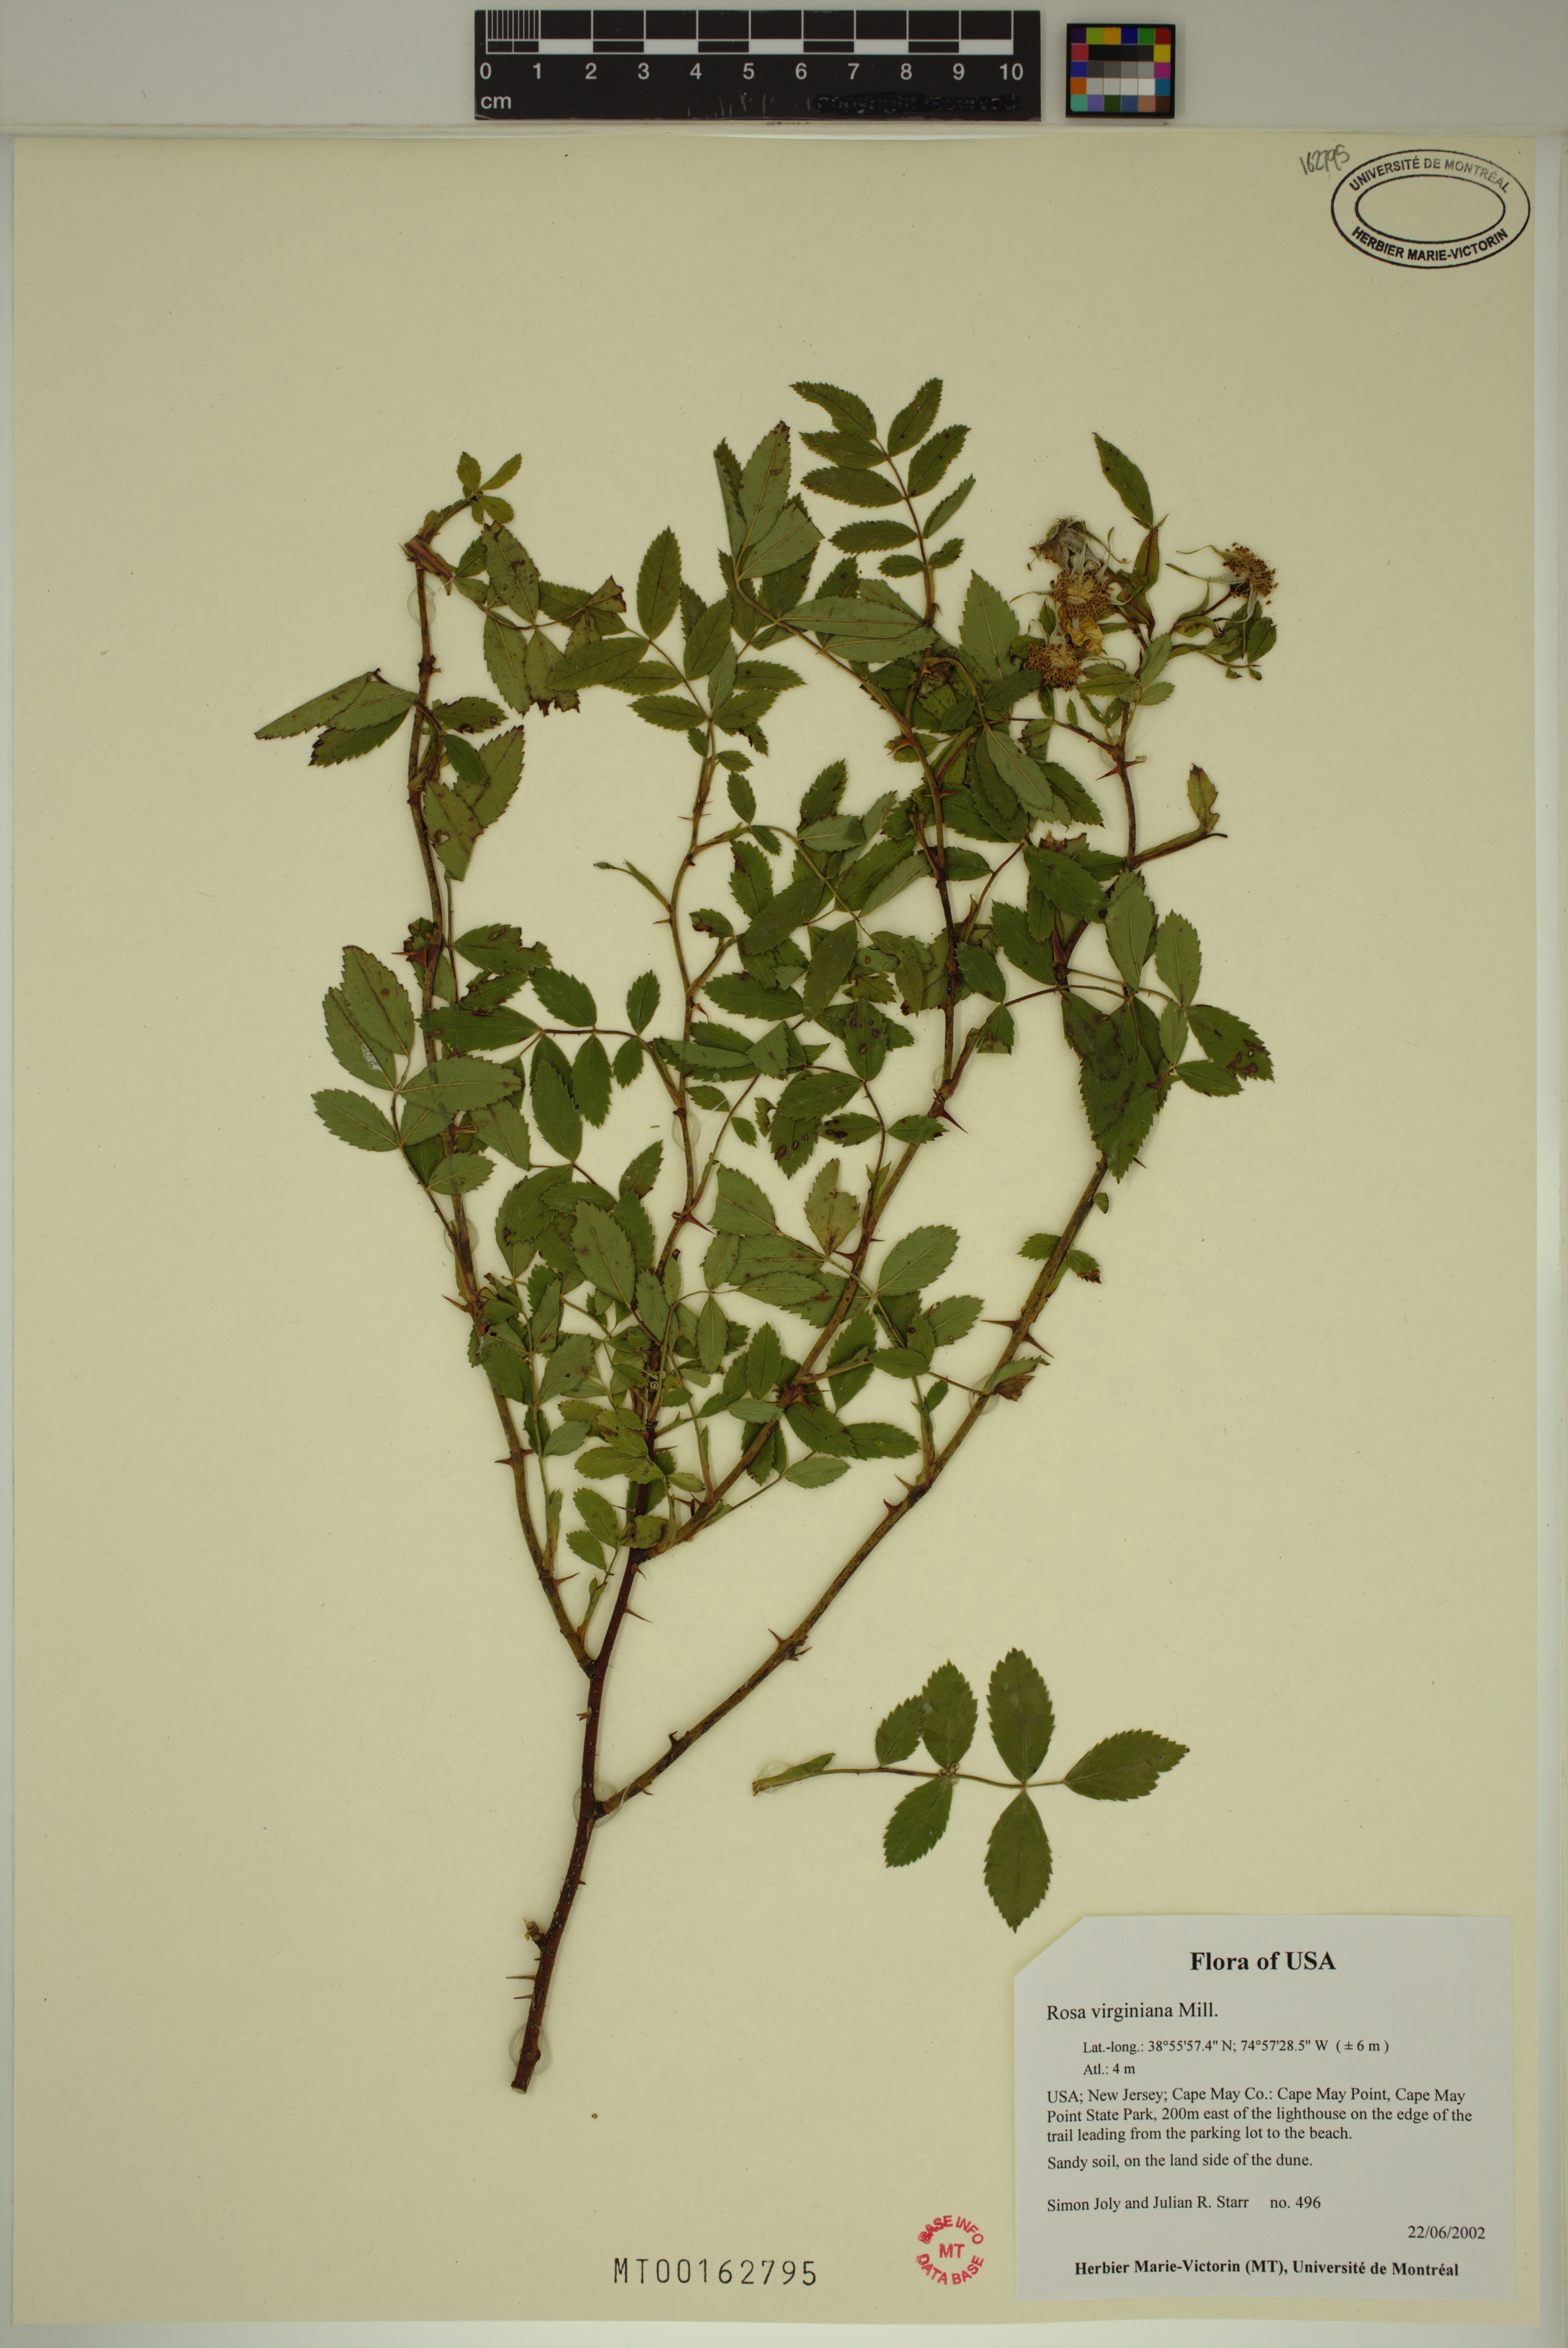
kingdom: Plantae
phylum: Tracheophyta
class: Magnoliopsida
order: Rosales
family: Rosaceae
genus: Rosa
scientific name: Rosa carolina
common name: Pasture rose
